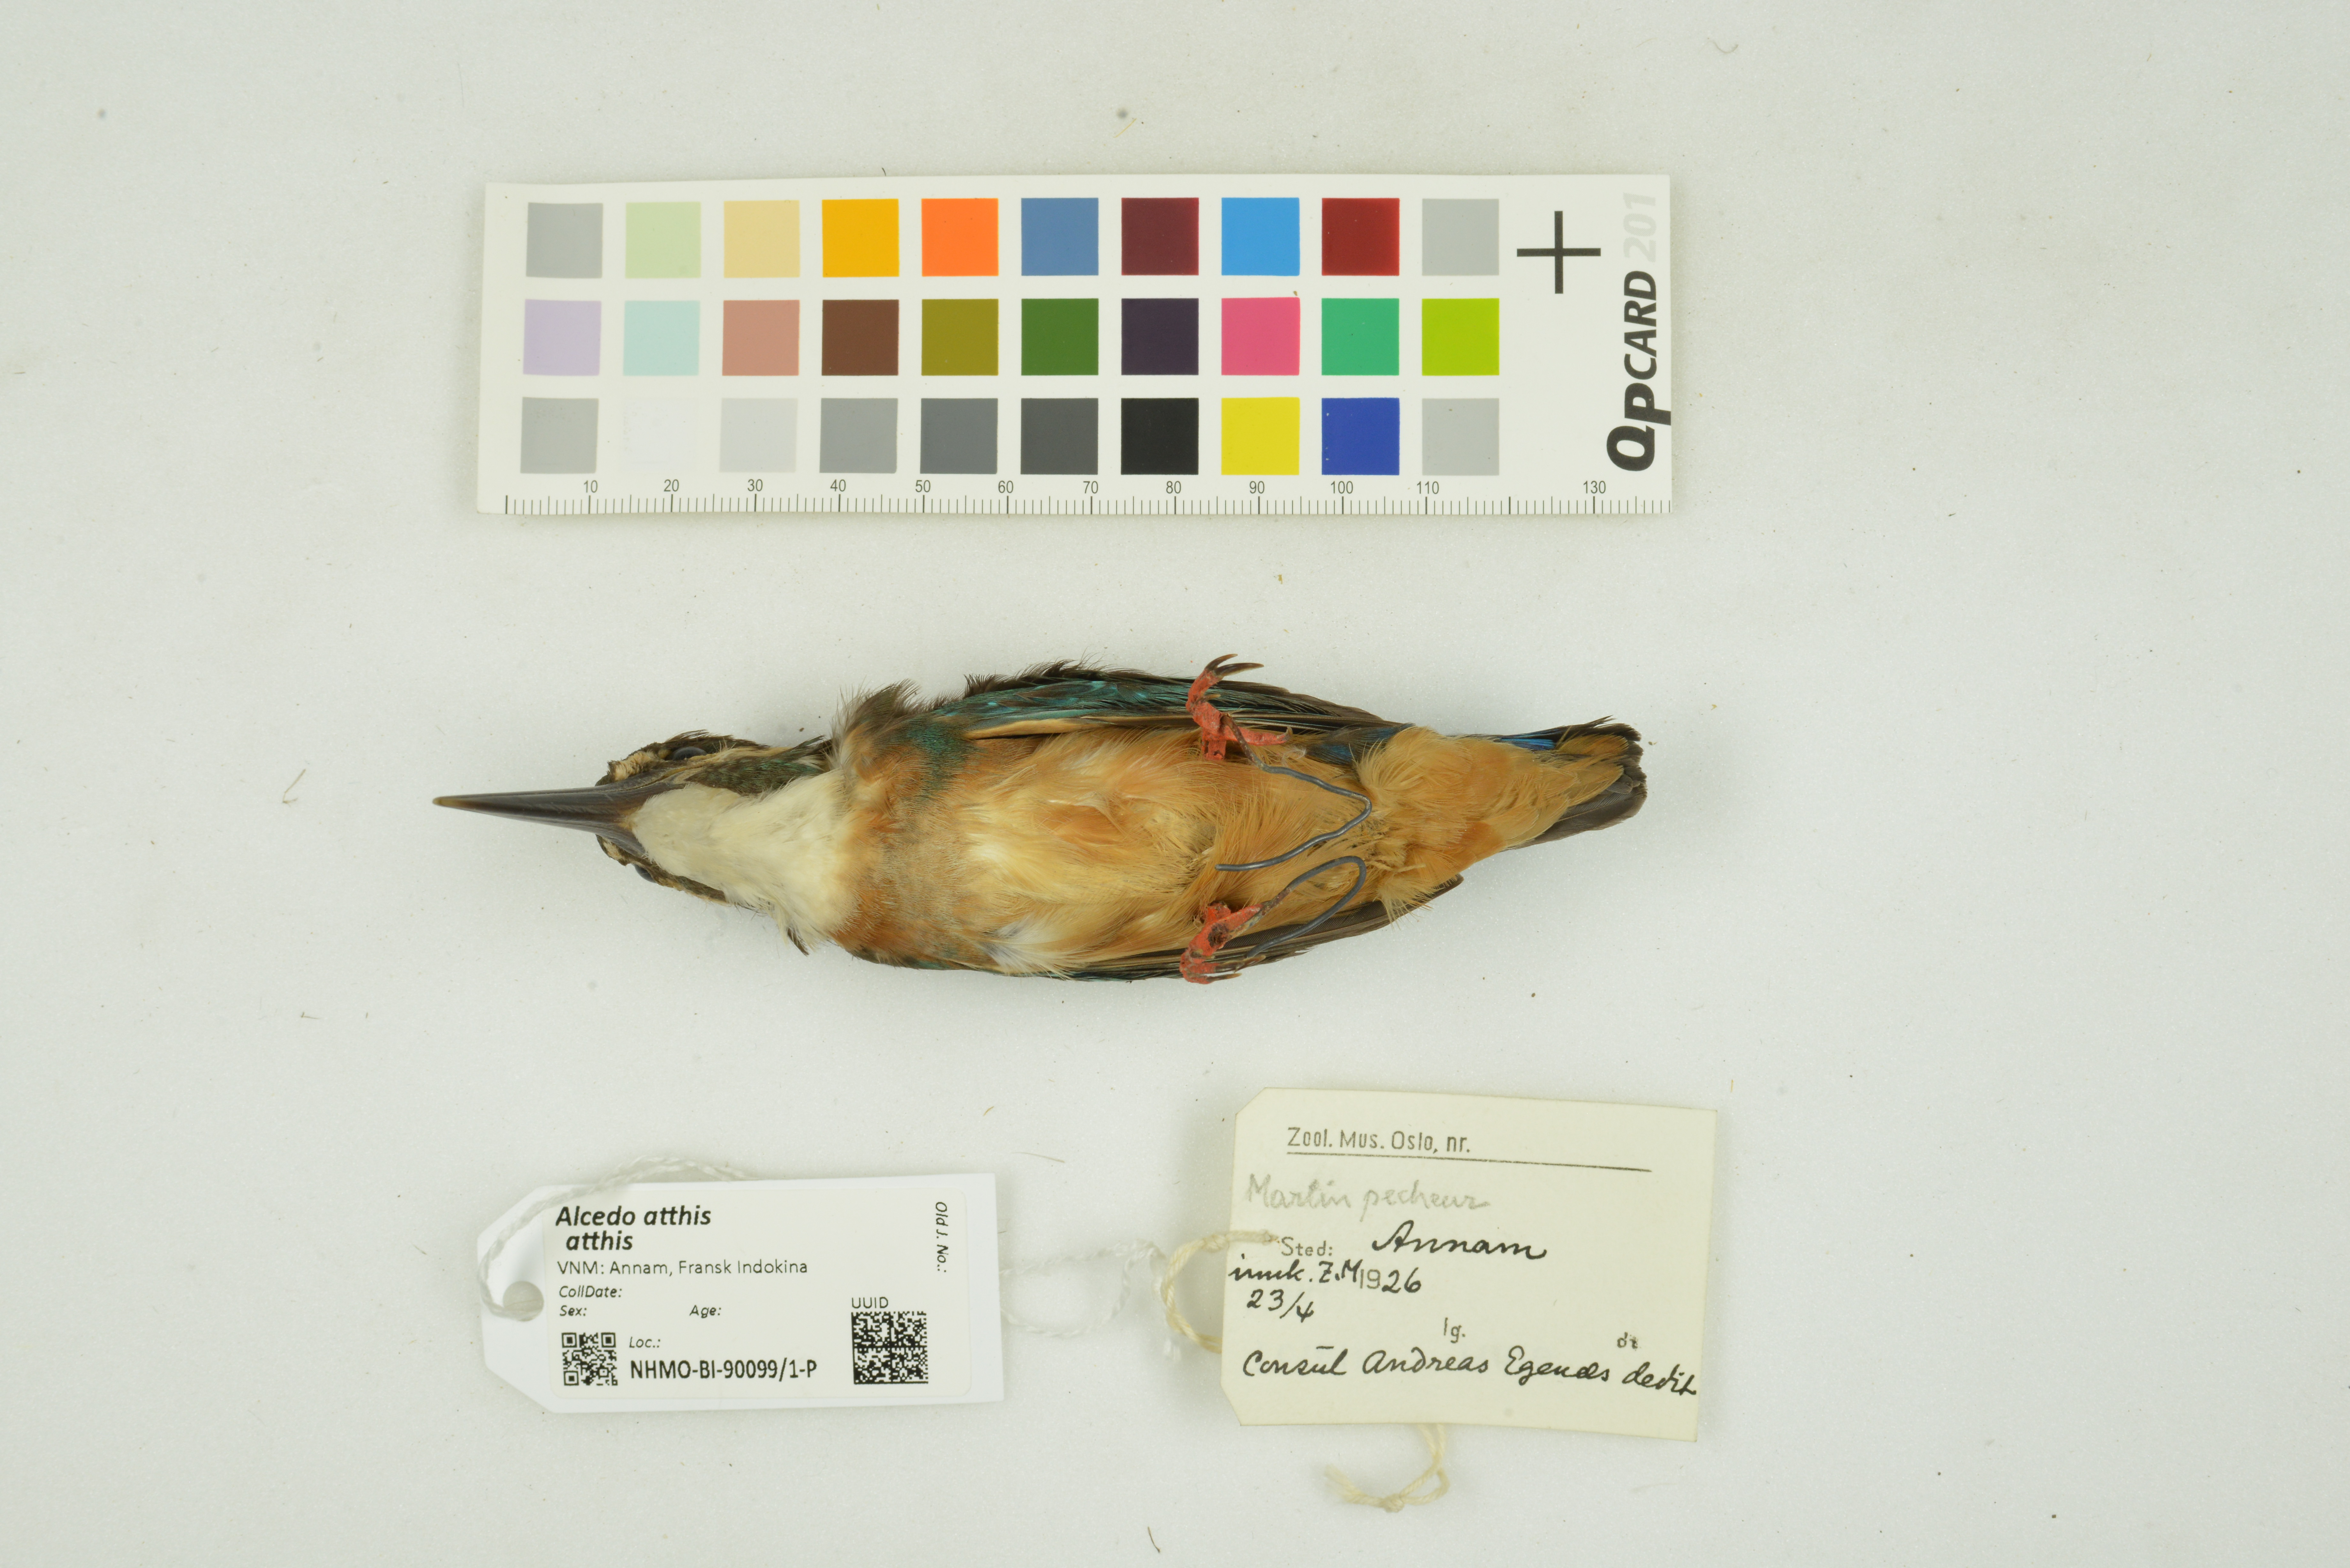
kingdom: Animalia
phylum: Chordata
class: Aves
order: Coraciiformes
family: Alcedinidae
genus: Alcedo
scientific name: Alcedo atthis
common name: Common kingfisher
